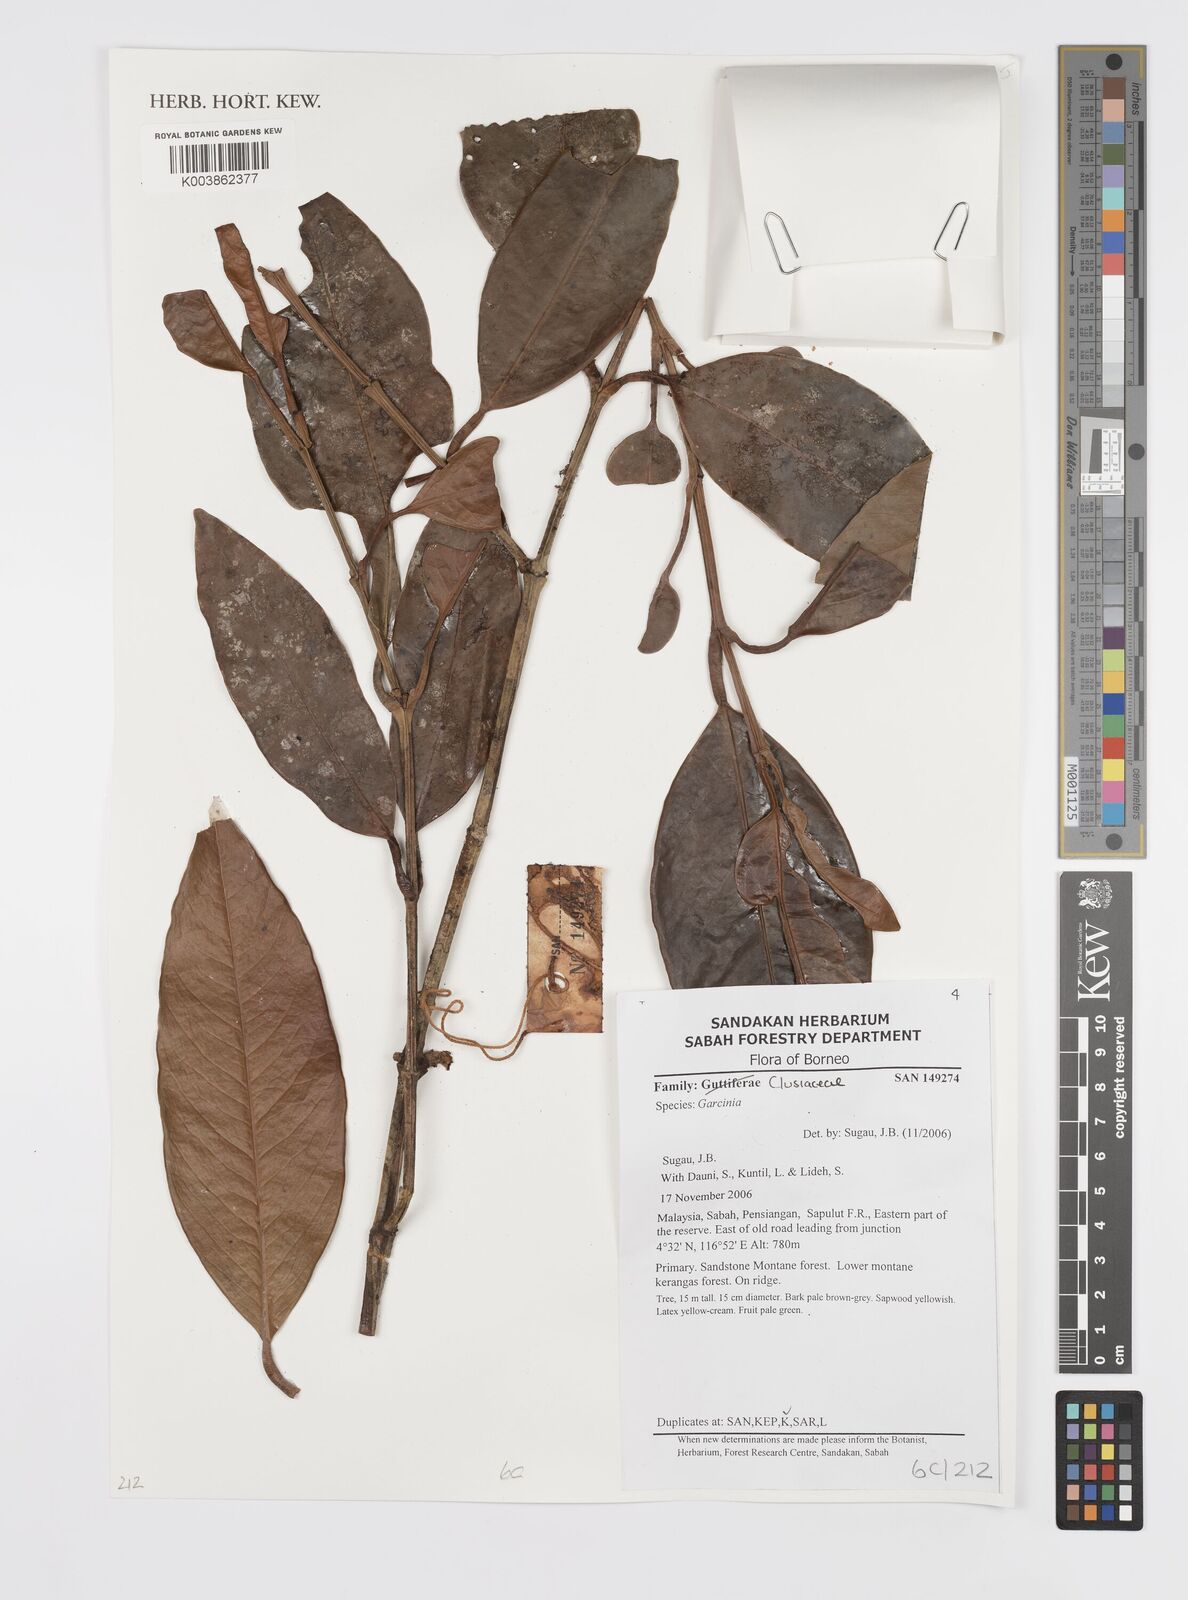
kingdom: Plantae
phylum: Tracheophyta
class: Magnoliopsida
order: Malpighiales
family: Clusiaceae
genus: Garcinia
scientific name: Garcinia
